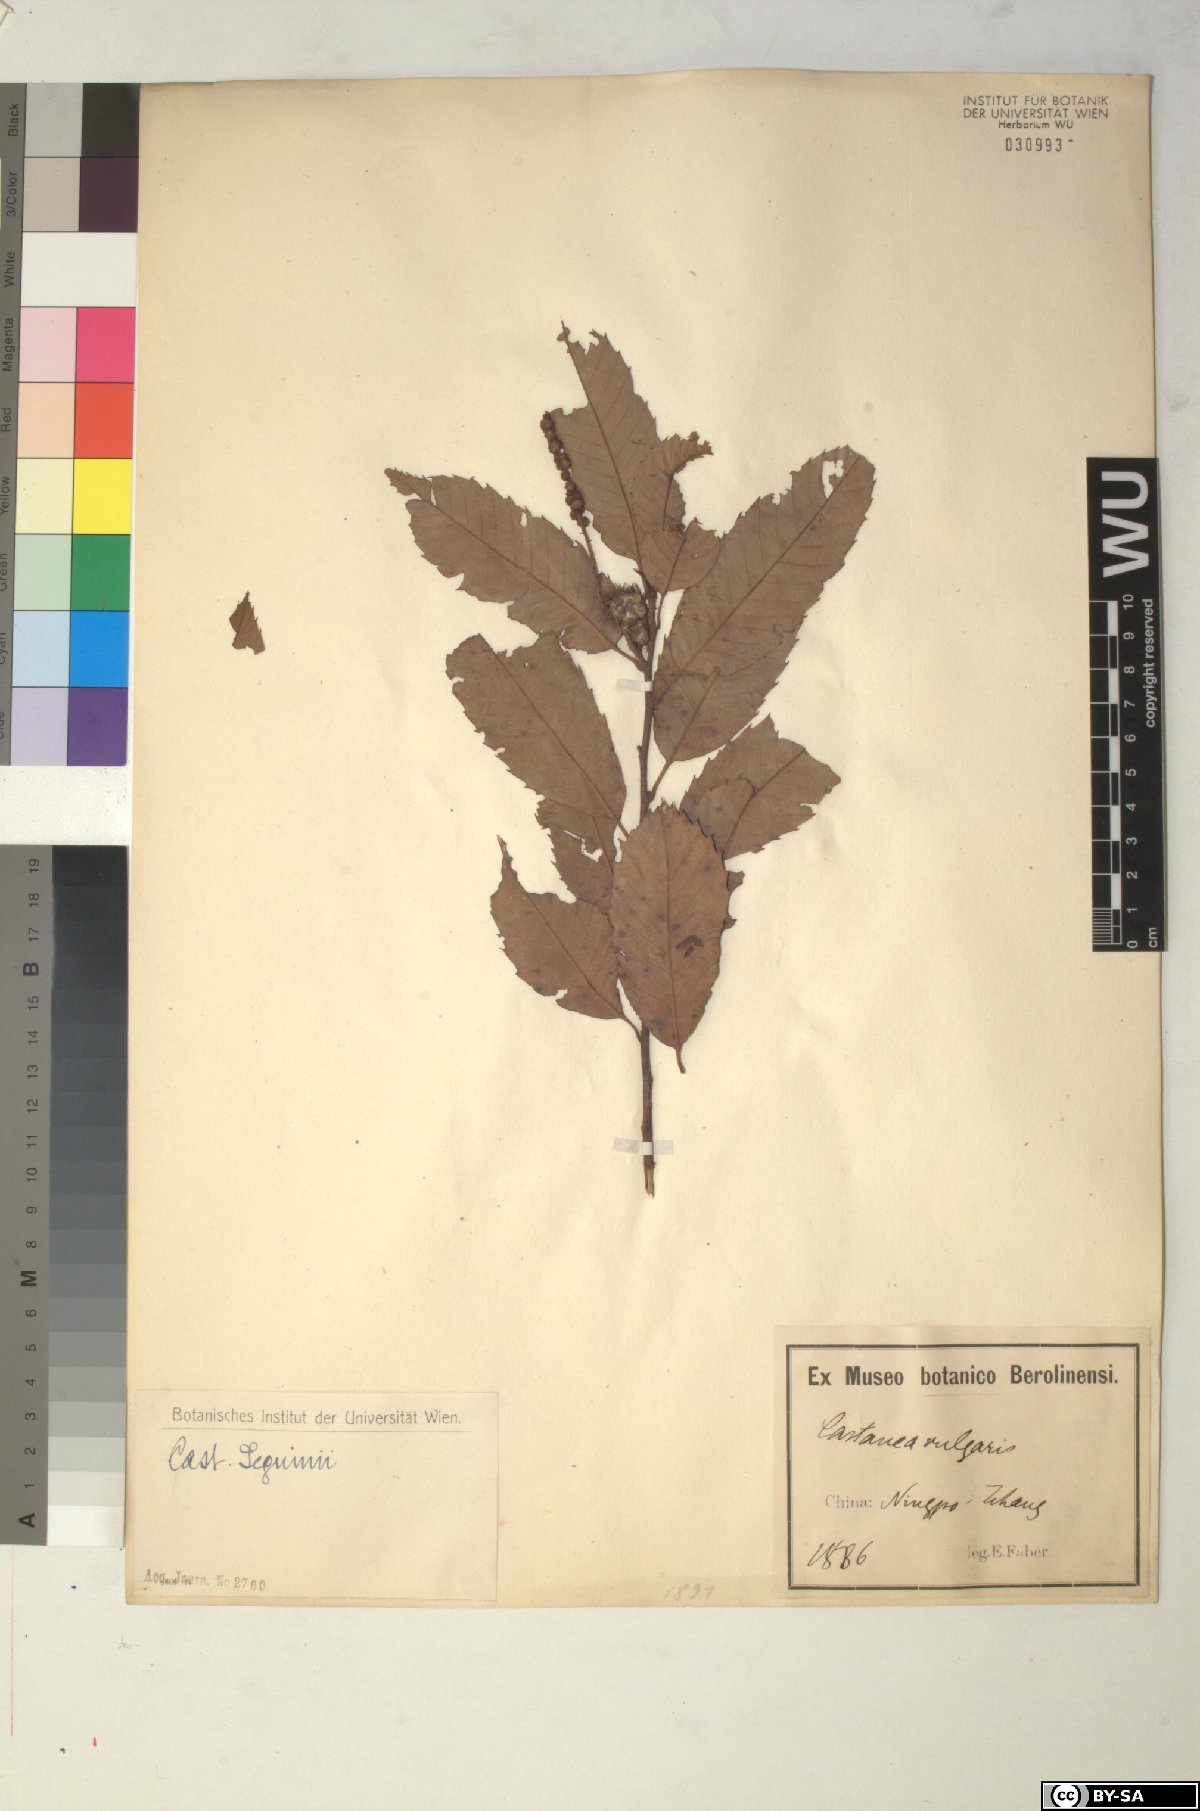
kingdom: Plantae
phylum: Tracheophyta
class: Magnoliopsida
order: Fagales
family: Fagaceae
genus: Castanea
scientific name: Castanea seguinii
